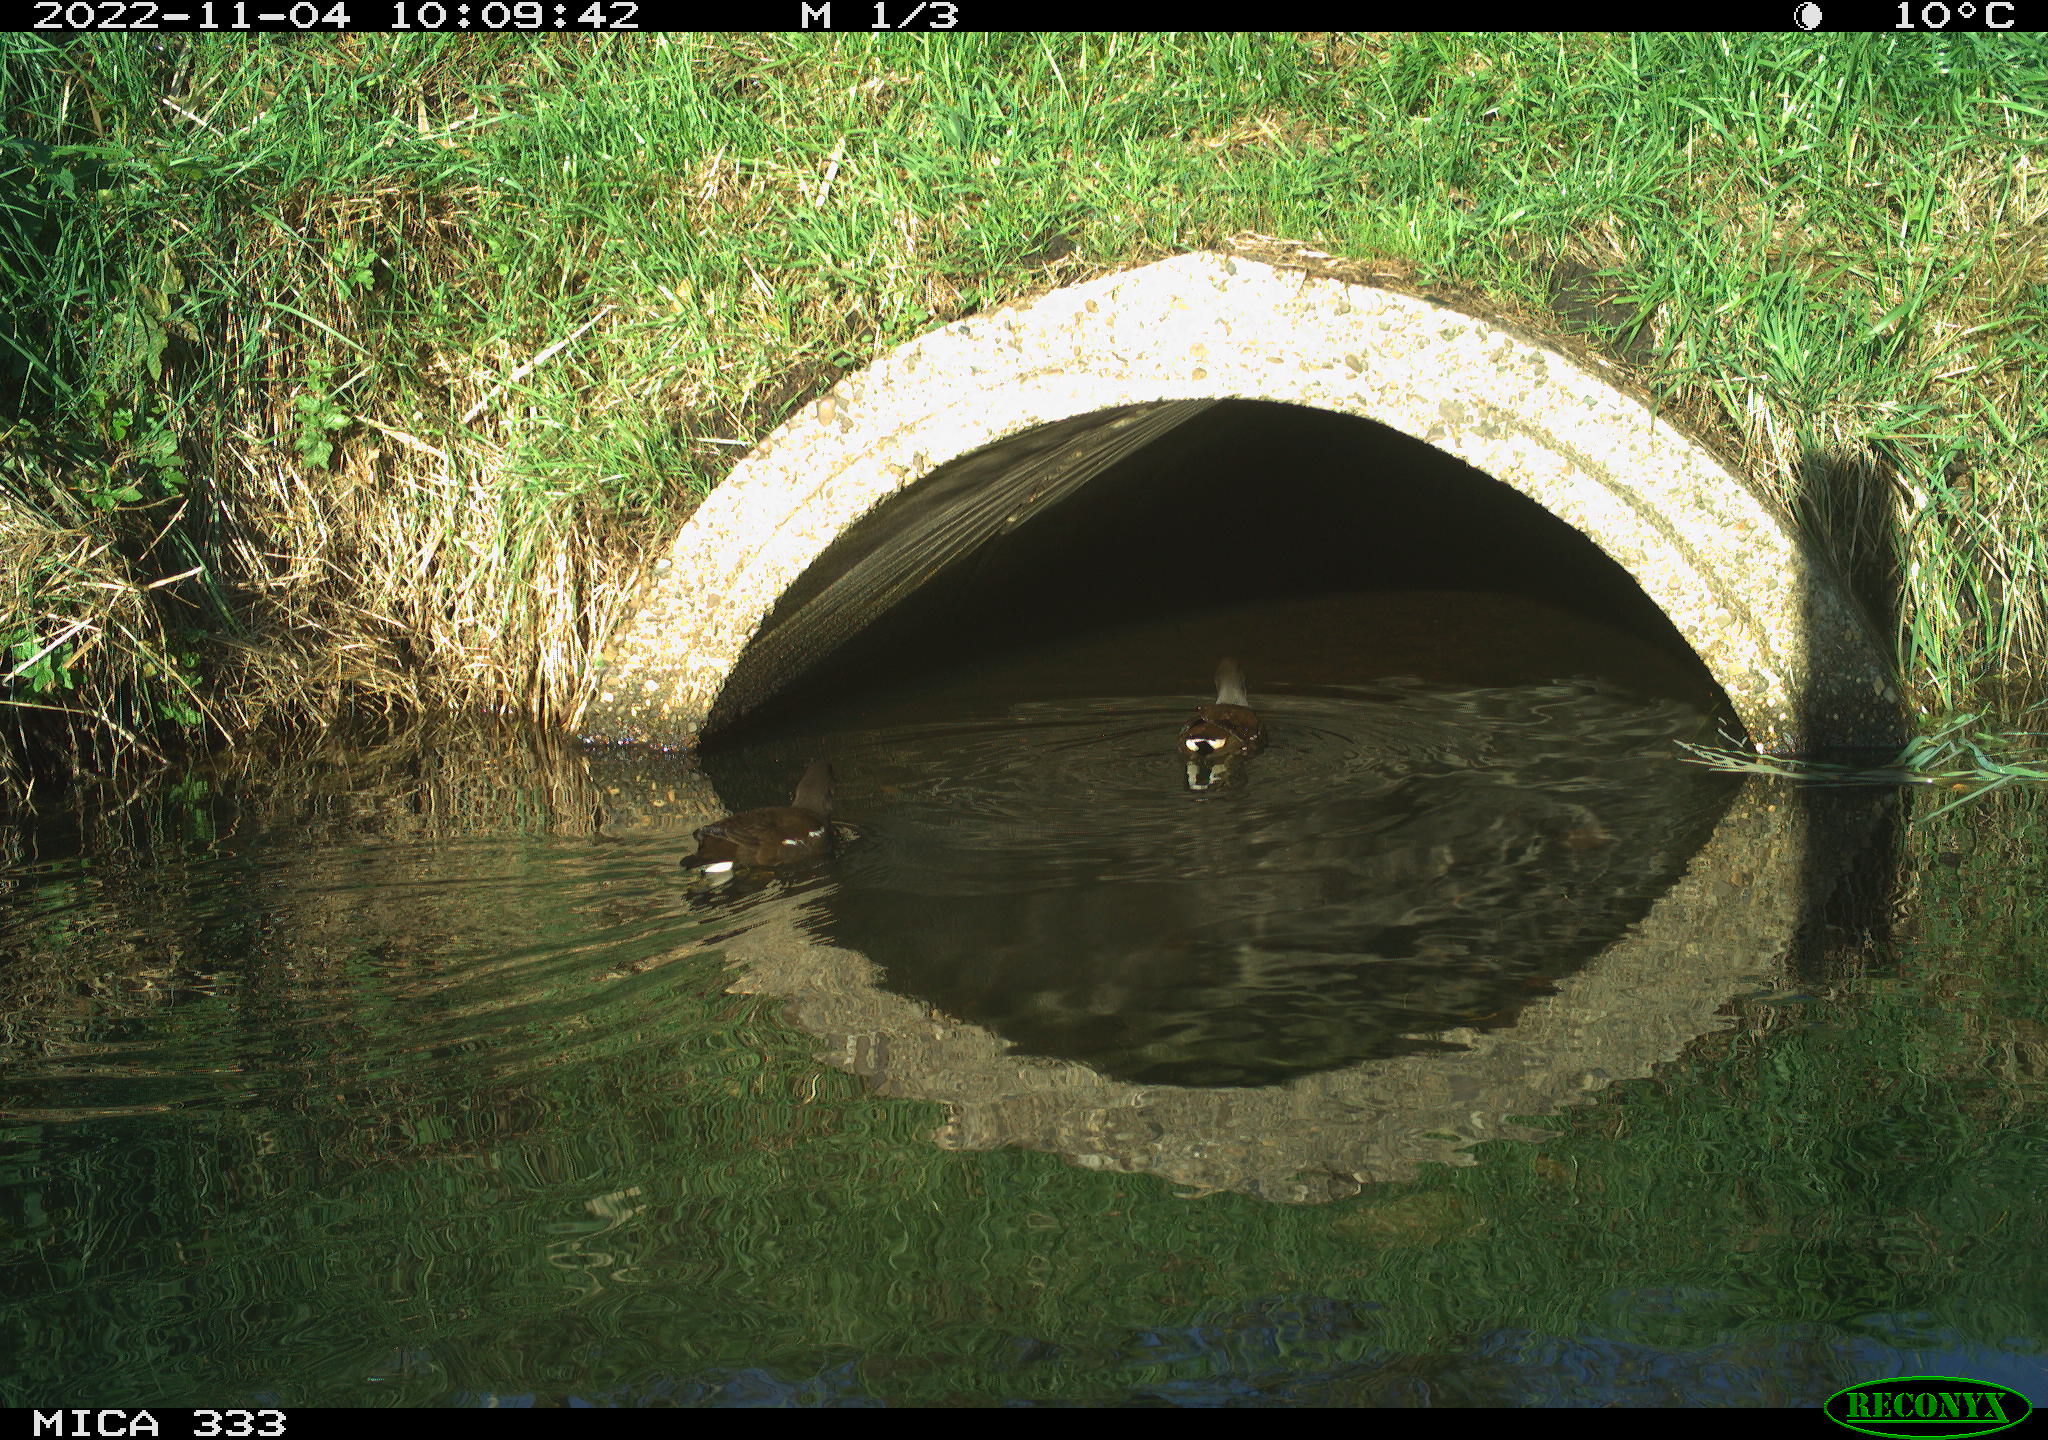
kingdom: Animalia
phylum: Chordata
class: Aves
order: Gruiformes
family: Rallidae
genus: Gallinula
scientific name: Gallinula chloropus
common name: Common moorhen
